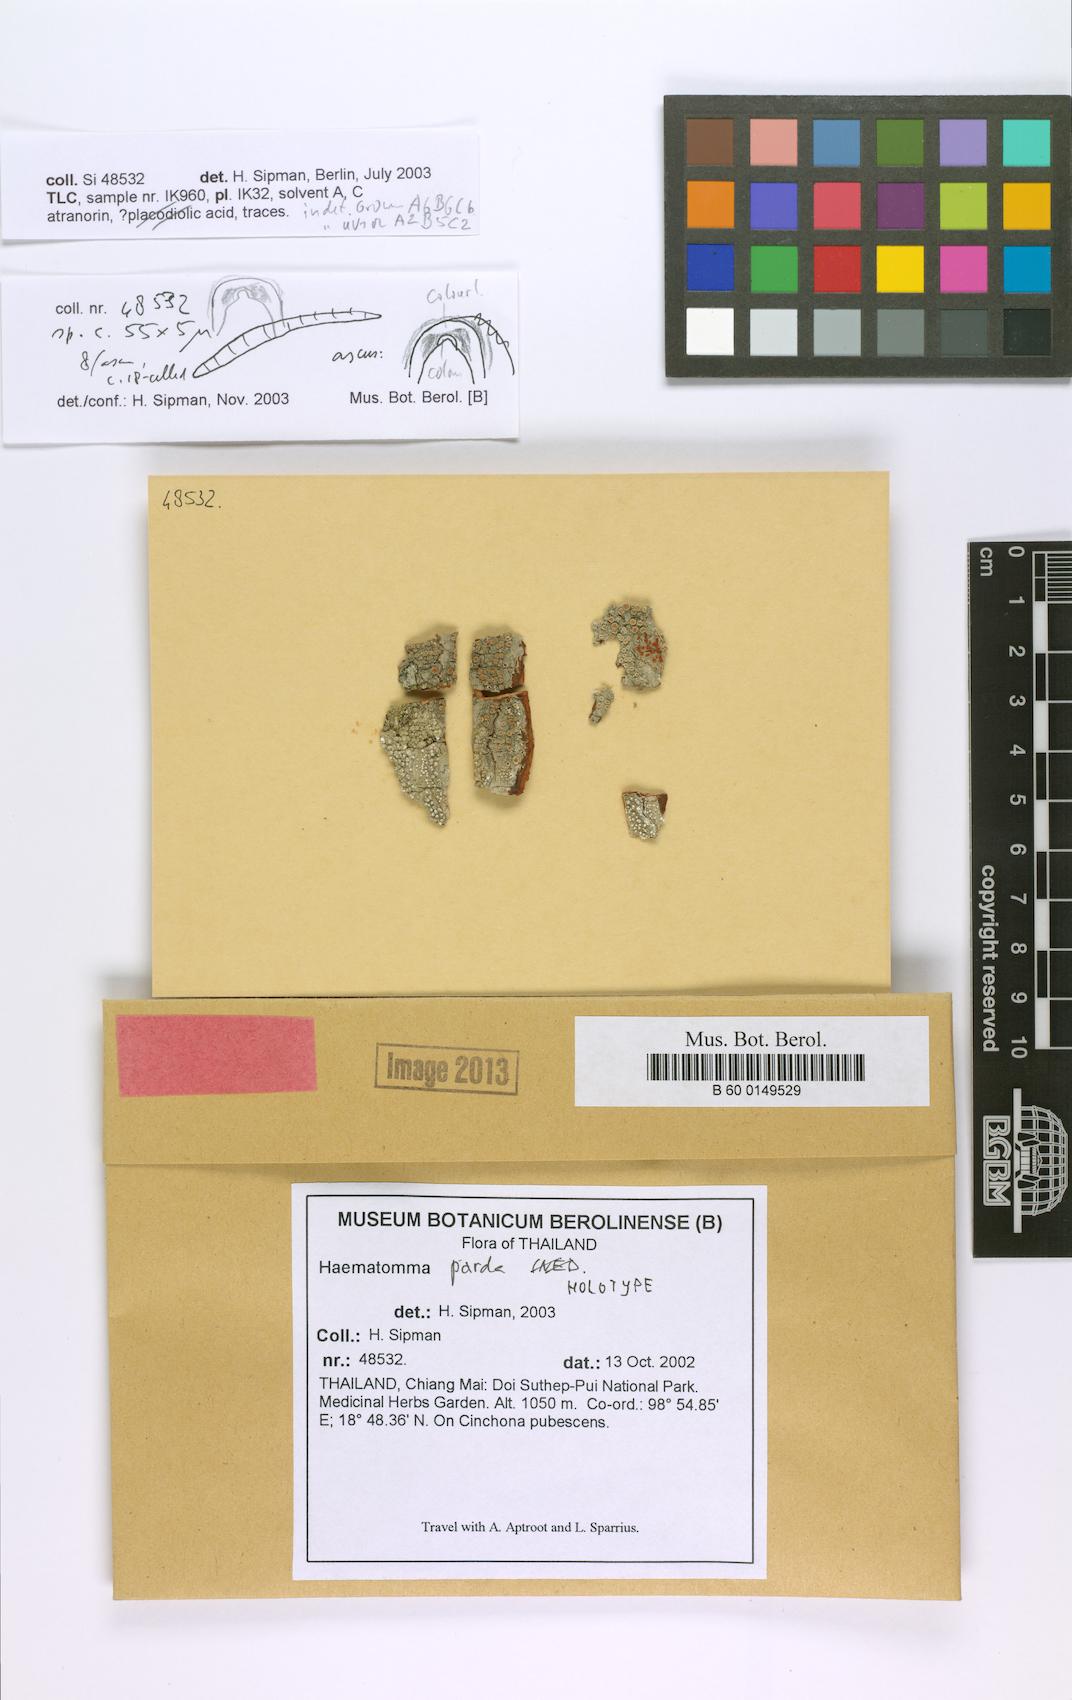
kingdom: Fungi
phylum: Ascomycota
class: Lecanoromycetes
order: Lecanorales
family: Haematommataceae
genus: Haematomma
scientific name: Haematomma parda
